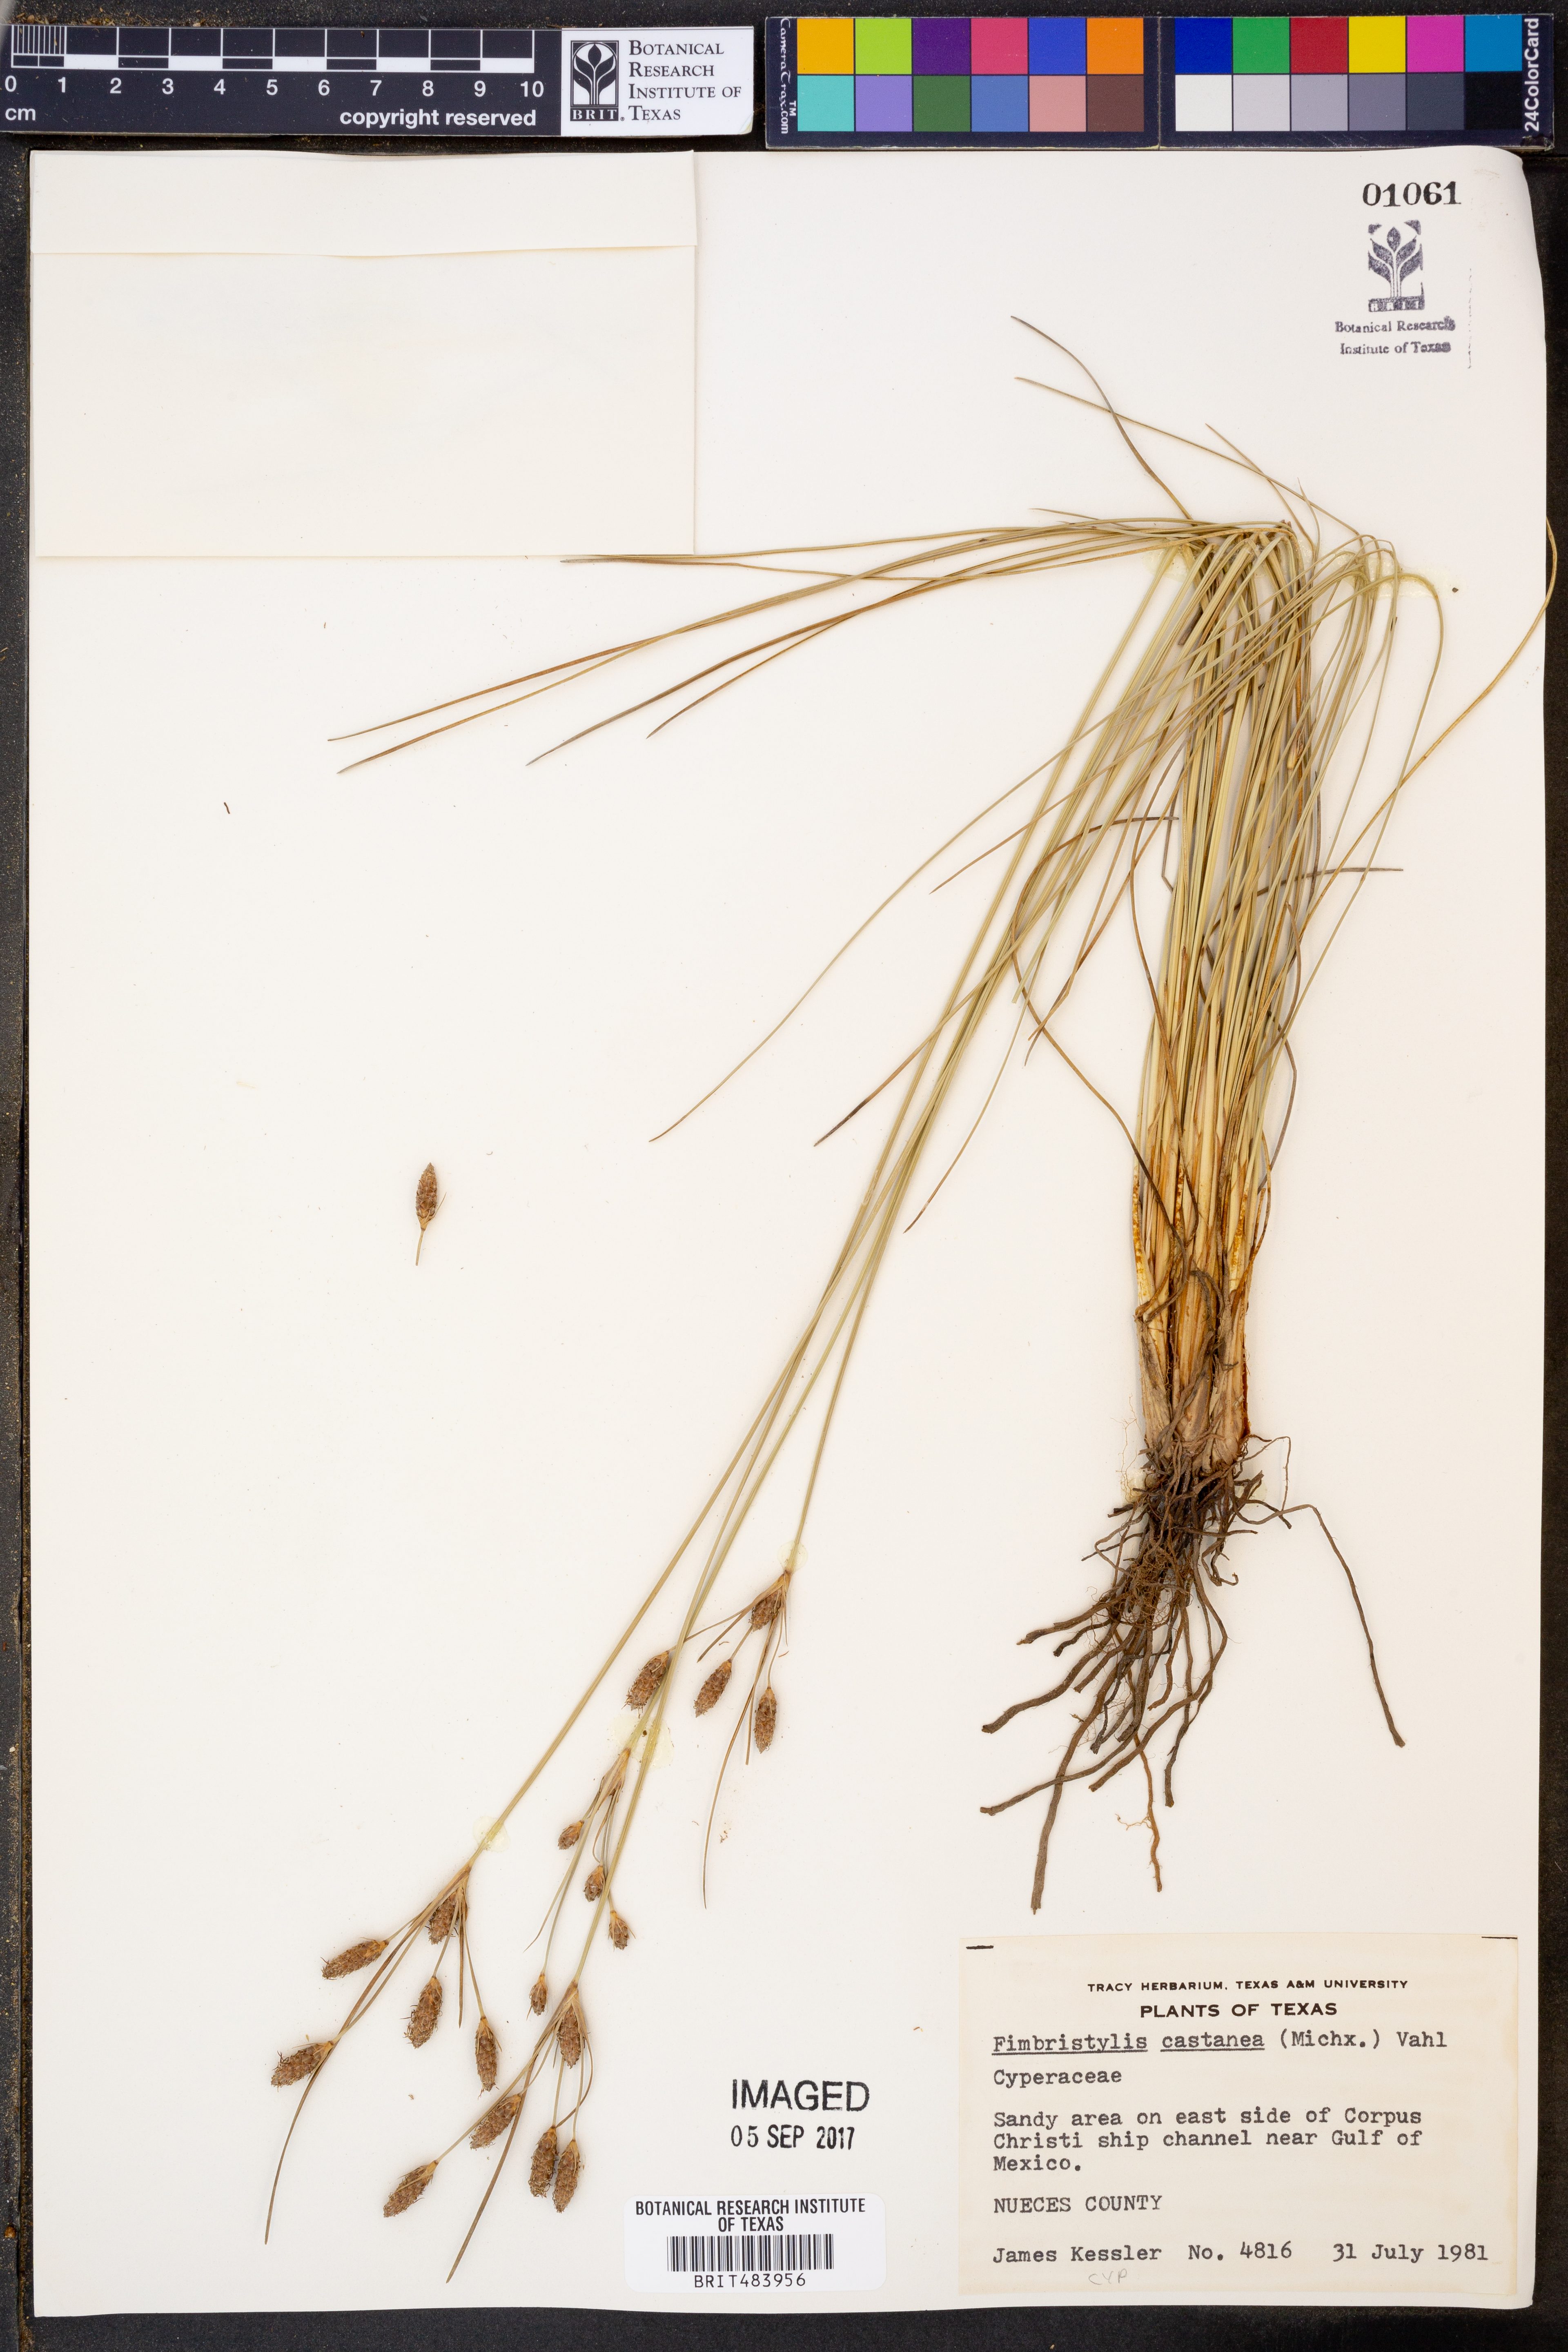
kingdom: Plantae
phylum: Tracheophyta
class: Liliopsida
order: Poales
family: Cyperaceae
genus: Fimbristylis
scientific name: Fimbristylis spadicea
